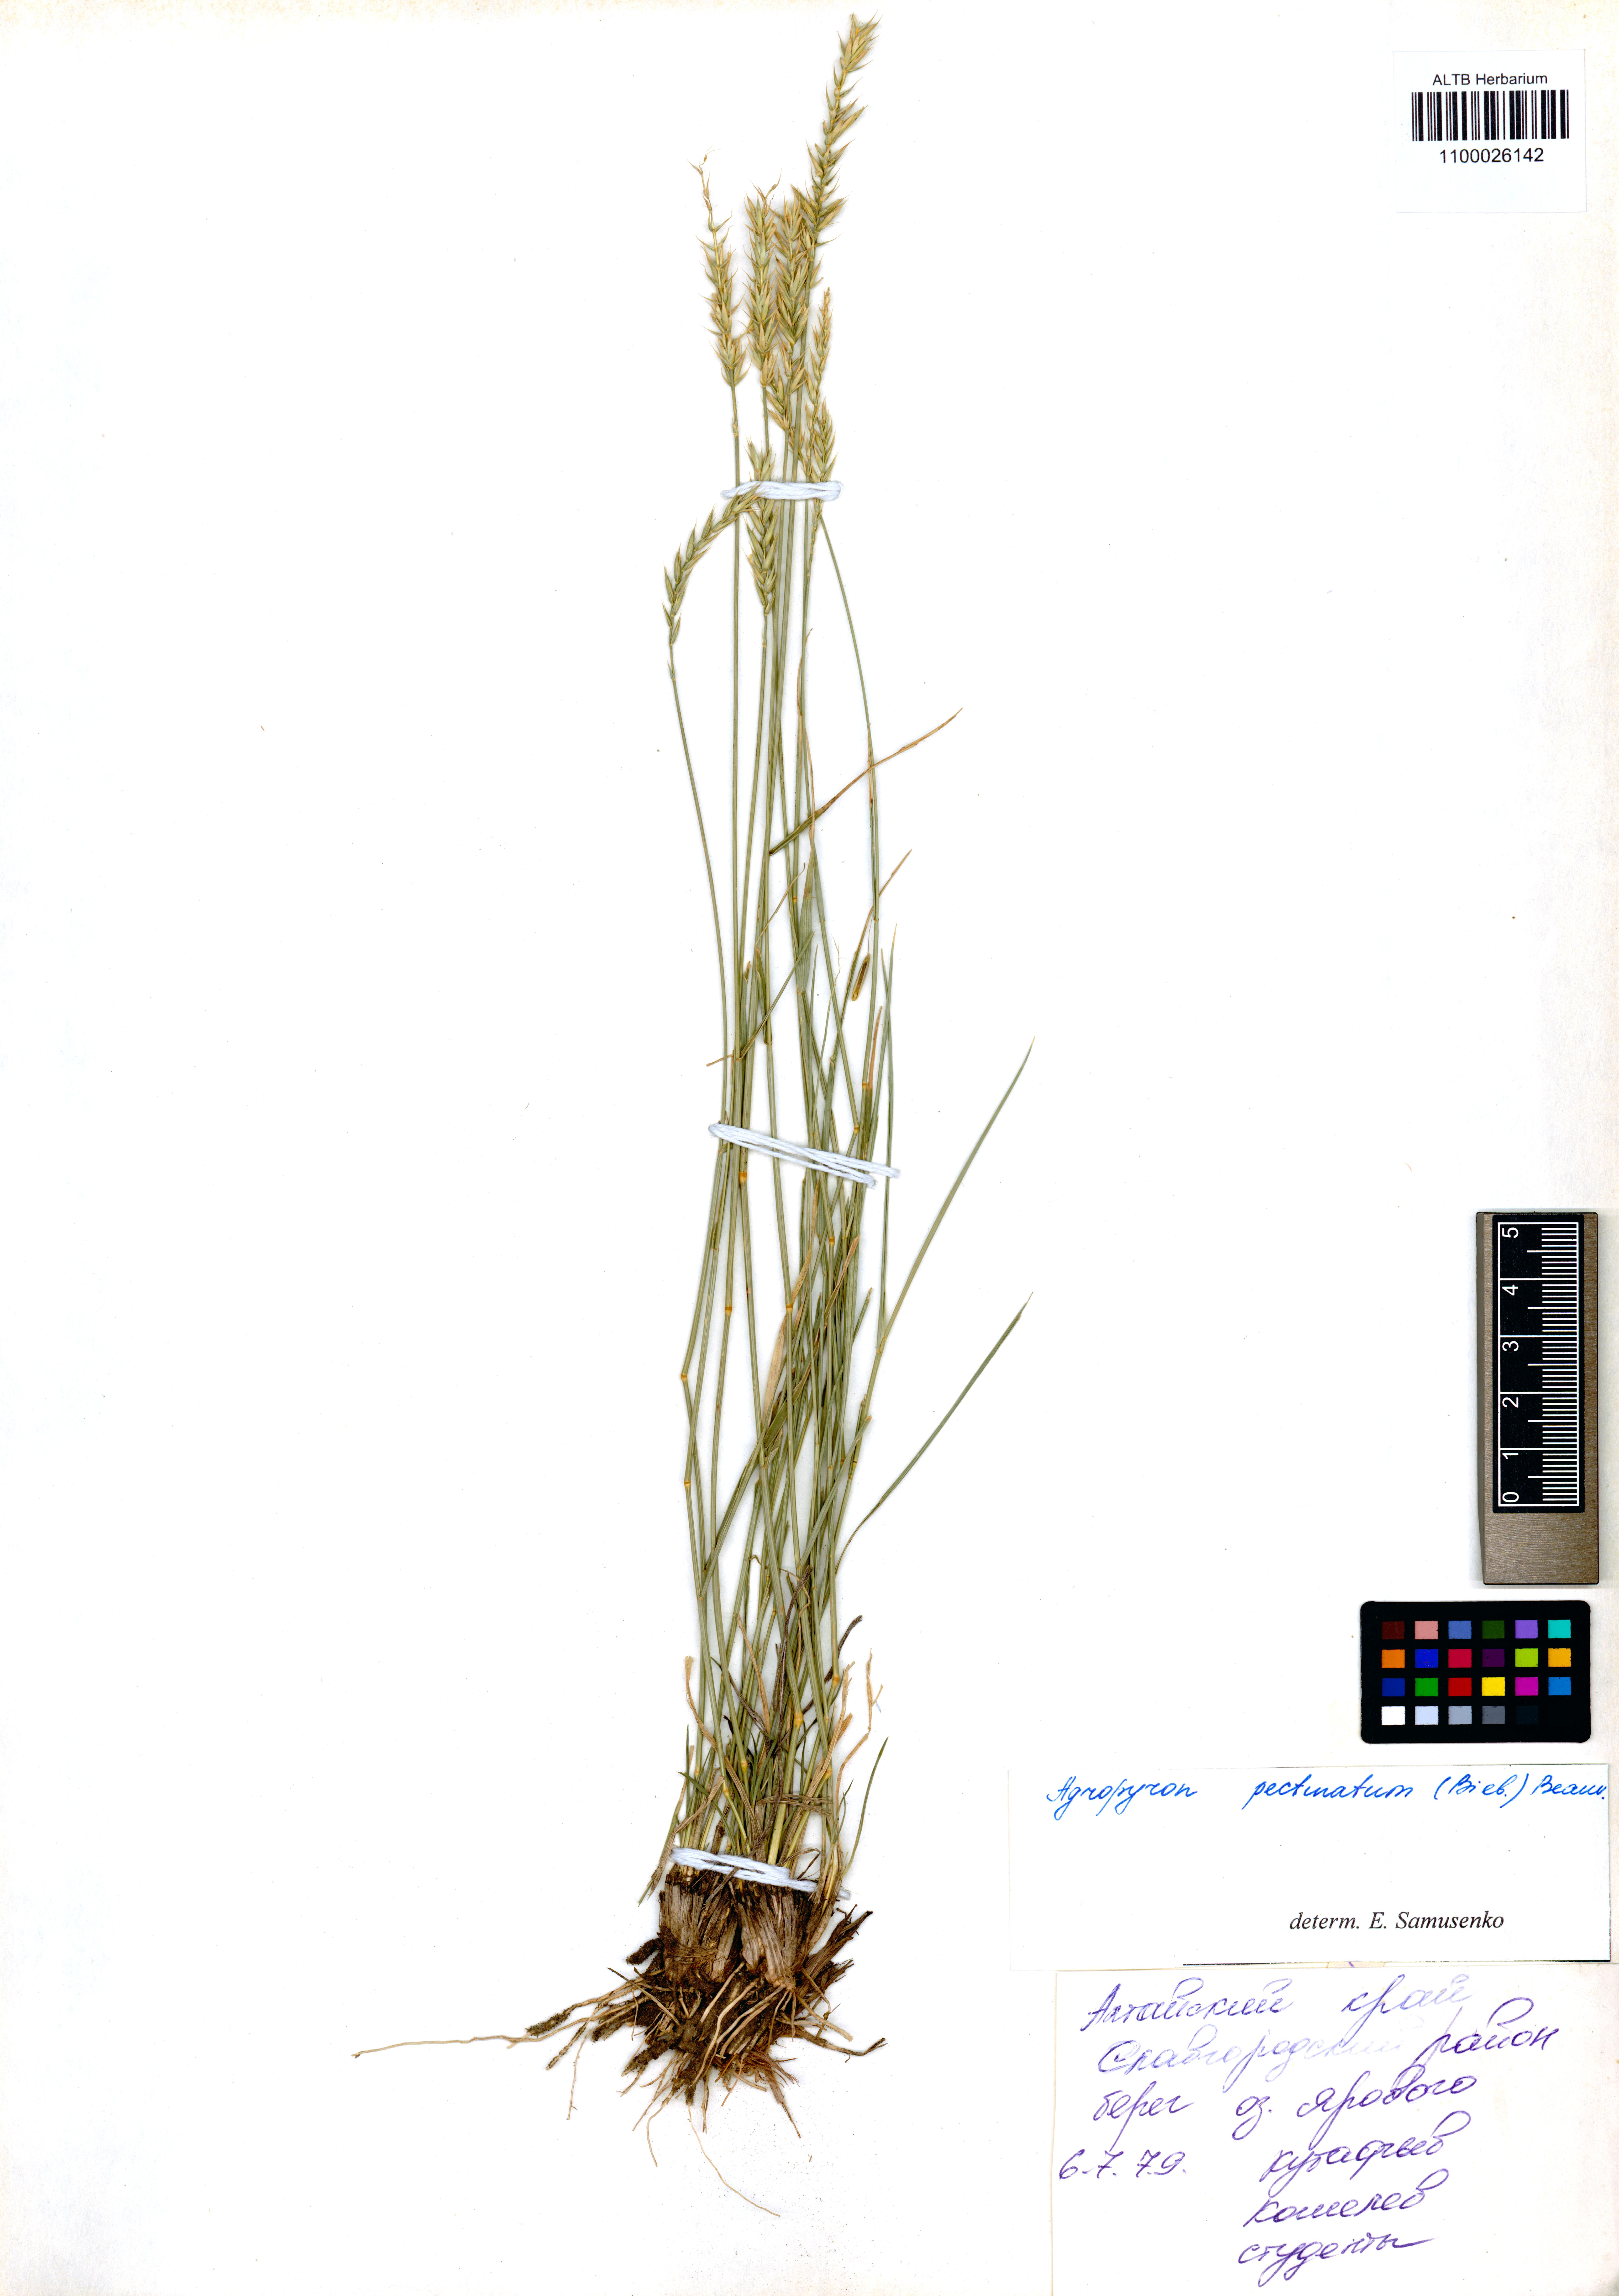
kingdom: Plantae
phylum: Tracheophyta
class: Liliopsida
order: Poales
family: Poaceae
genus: Agropyron
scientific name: Agropyron cristatum
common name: Crested wheatgrass
